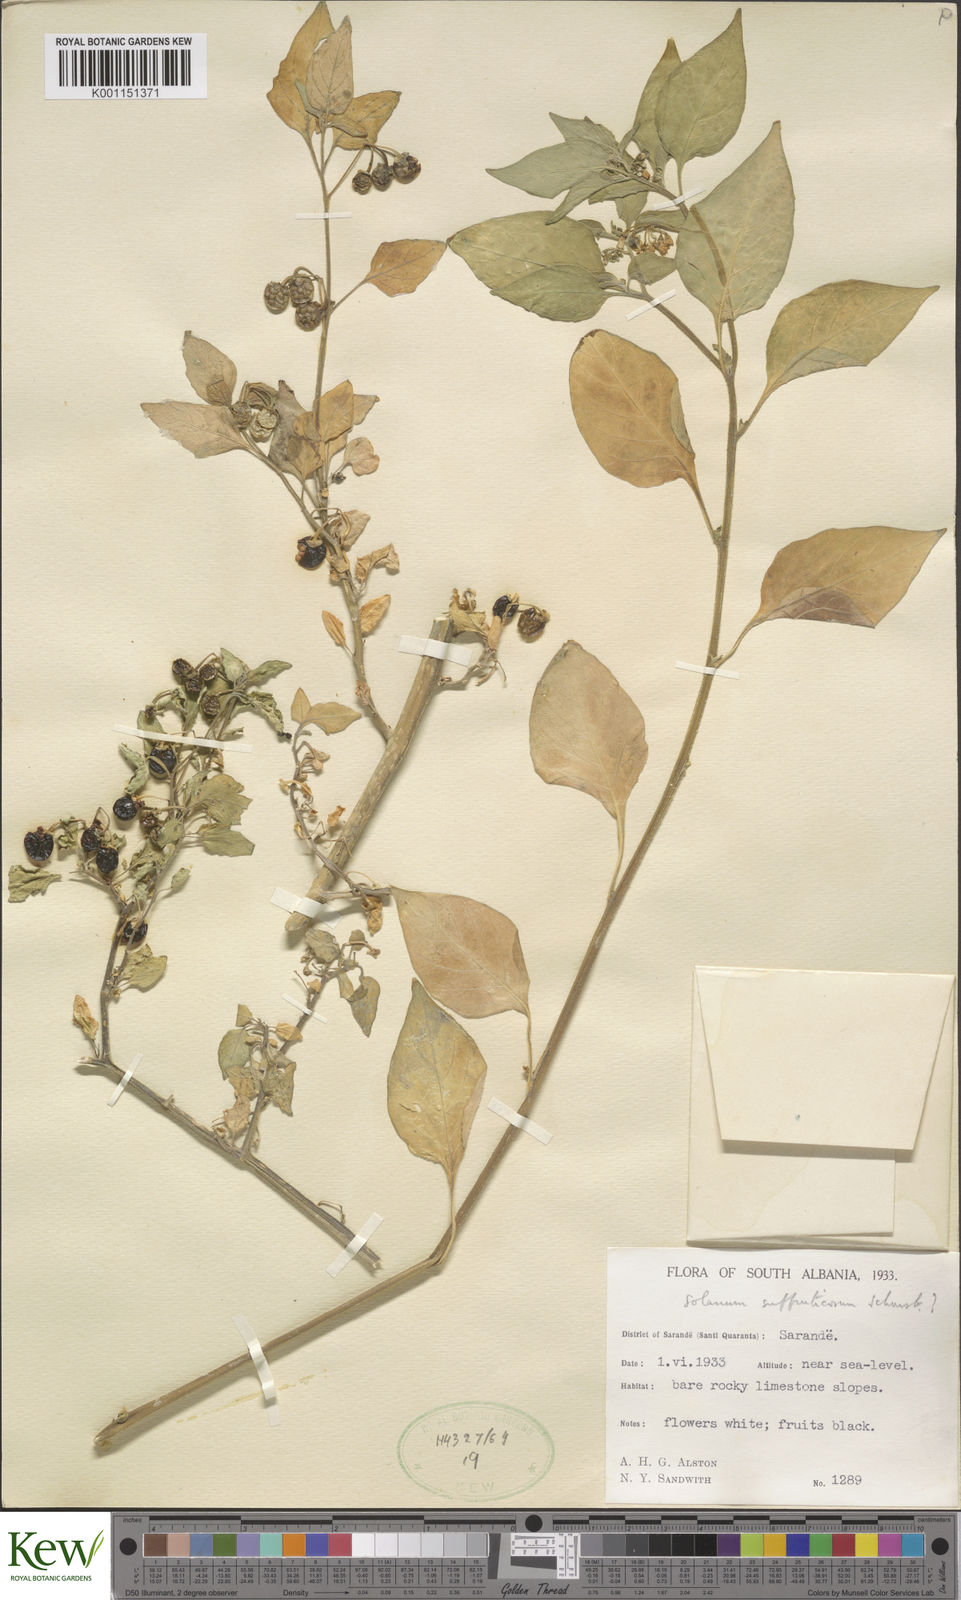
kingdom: Plantae
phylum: Tracheophyta
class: Magnoliopsida
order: Solanales
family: Solanaceae
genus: Solanum
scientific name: Solanum
